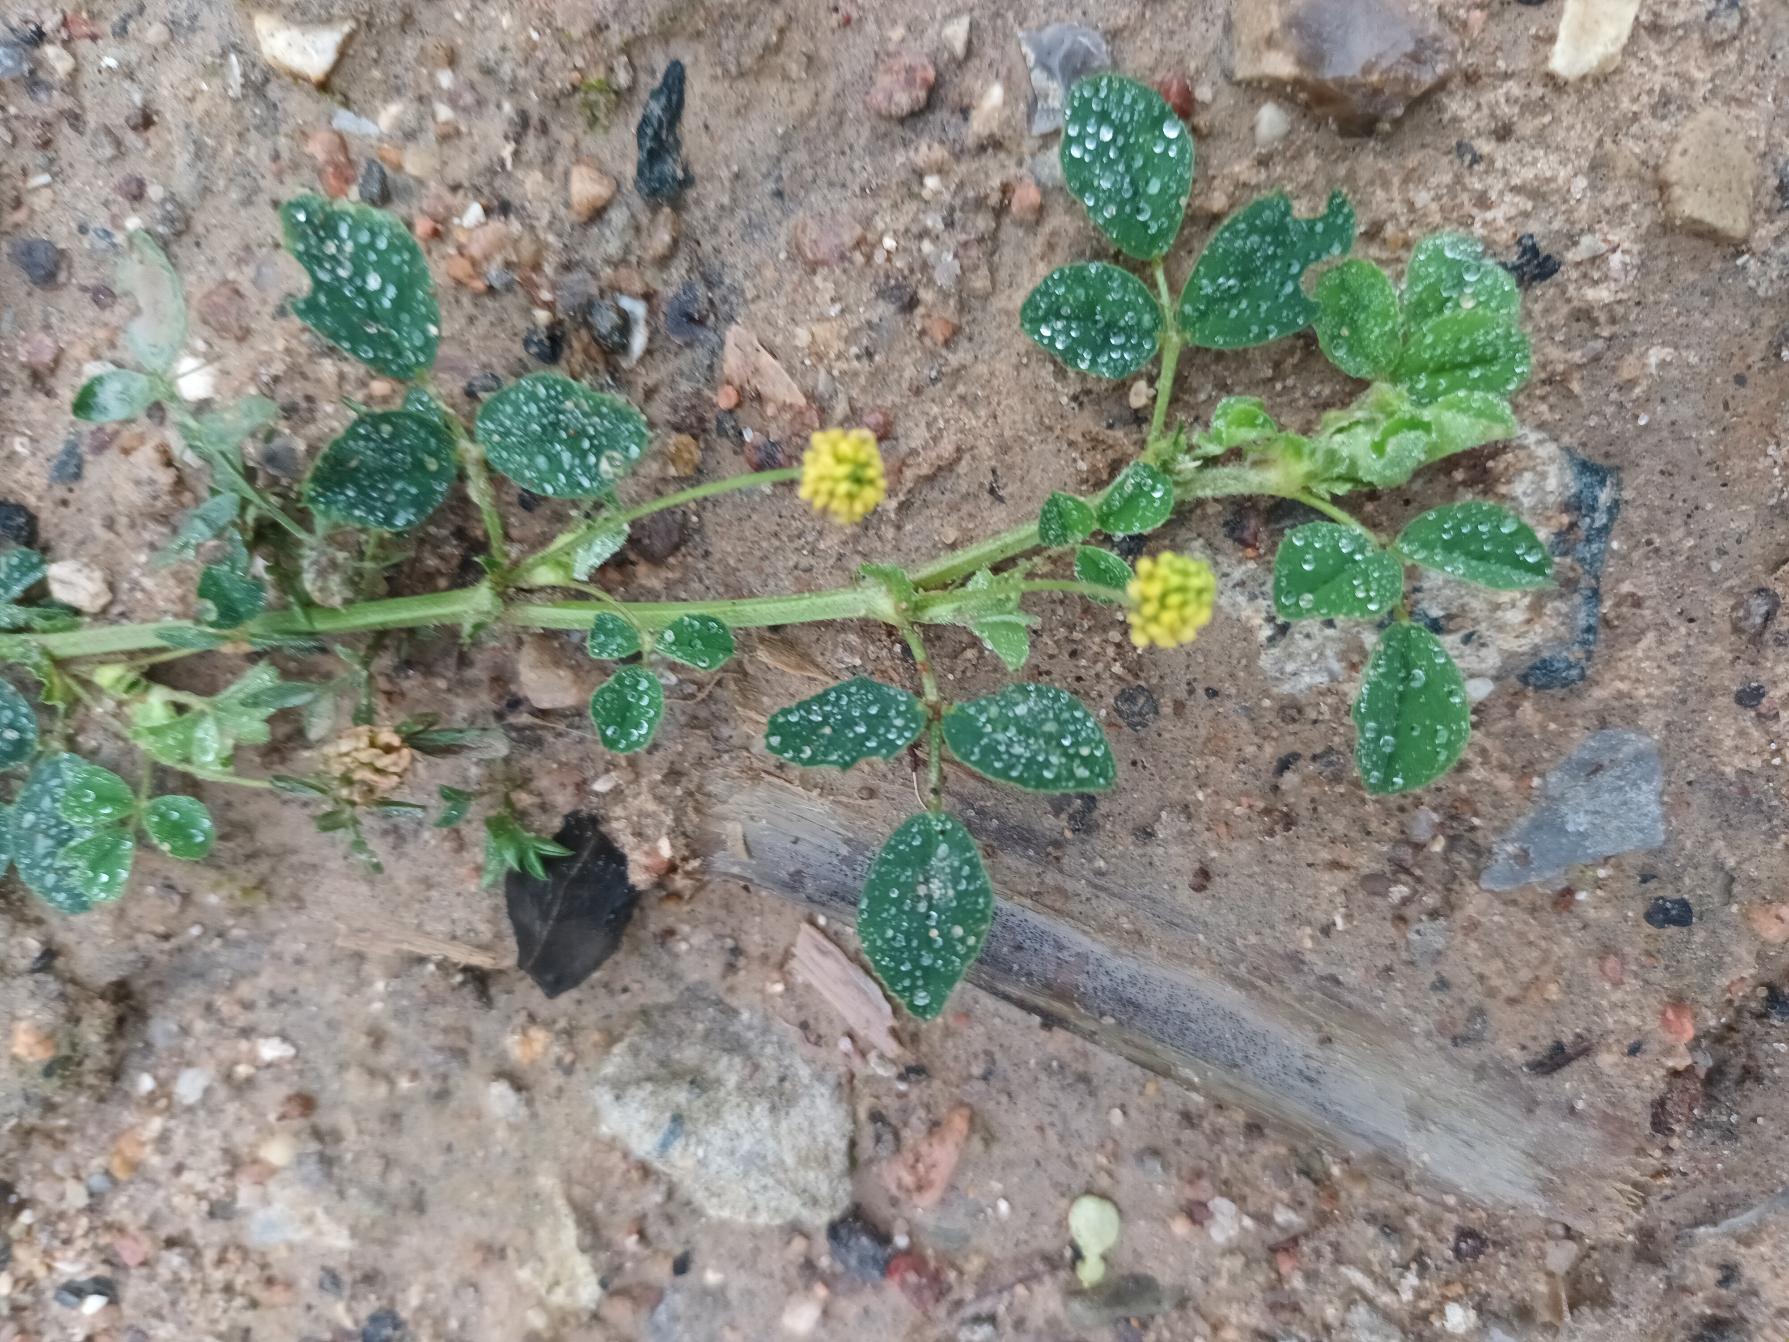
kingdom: Plantae
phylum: Tracheophyta
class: Magnoliopsida
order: Fabales
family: Fabaceae
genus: Medicago
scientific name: Medicago lupulina
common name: Humle-sneglebælg
